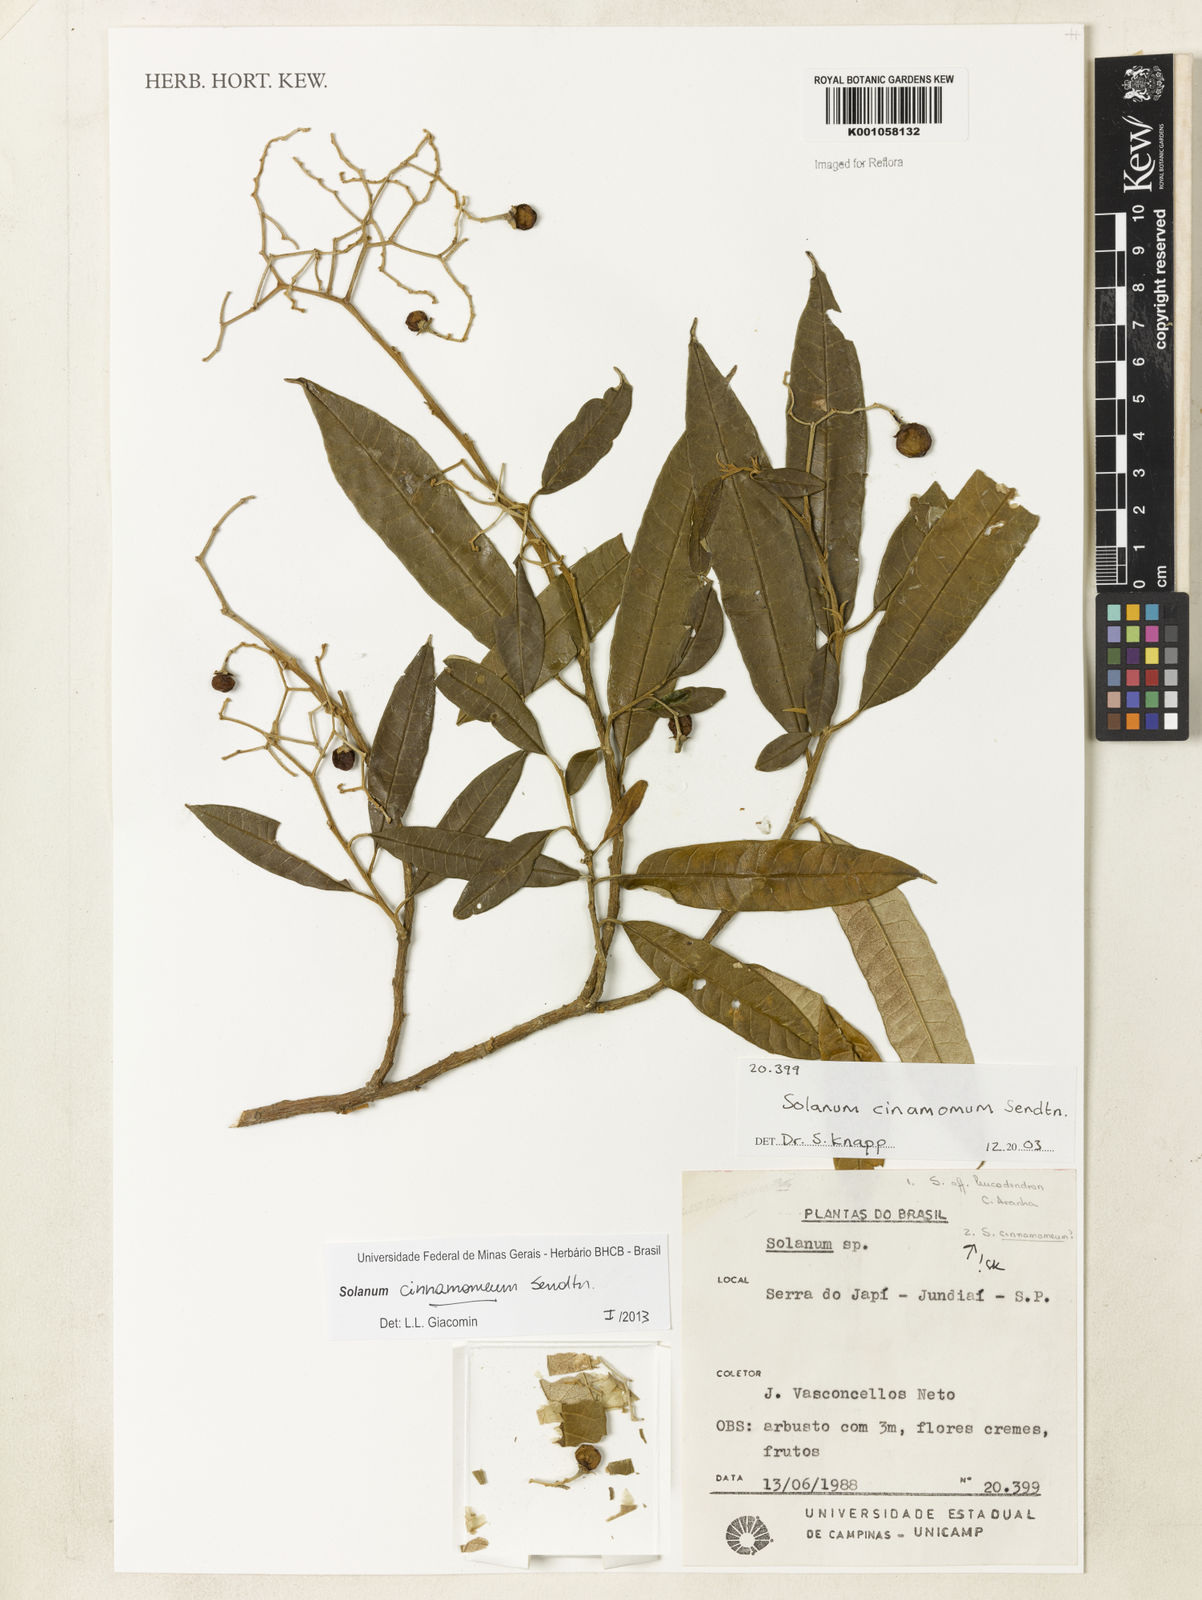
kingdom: Plantae
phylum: Tracheophyta
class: Magnoliopsida
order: Solanales
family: Solanaceae
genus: Solanum
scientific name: Solanum cinnamomeum
